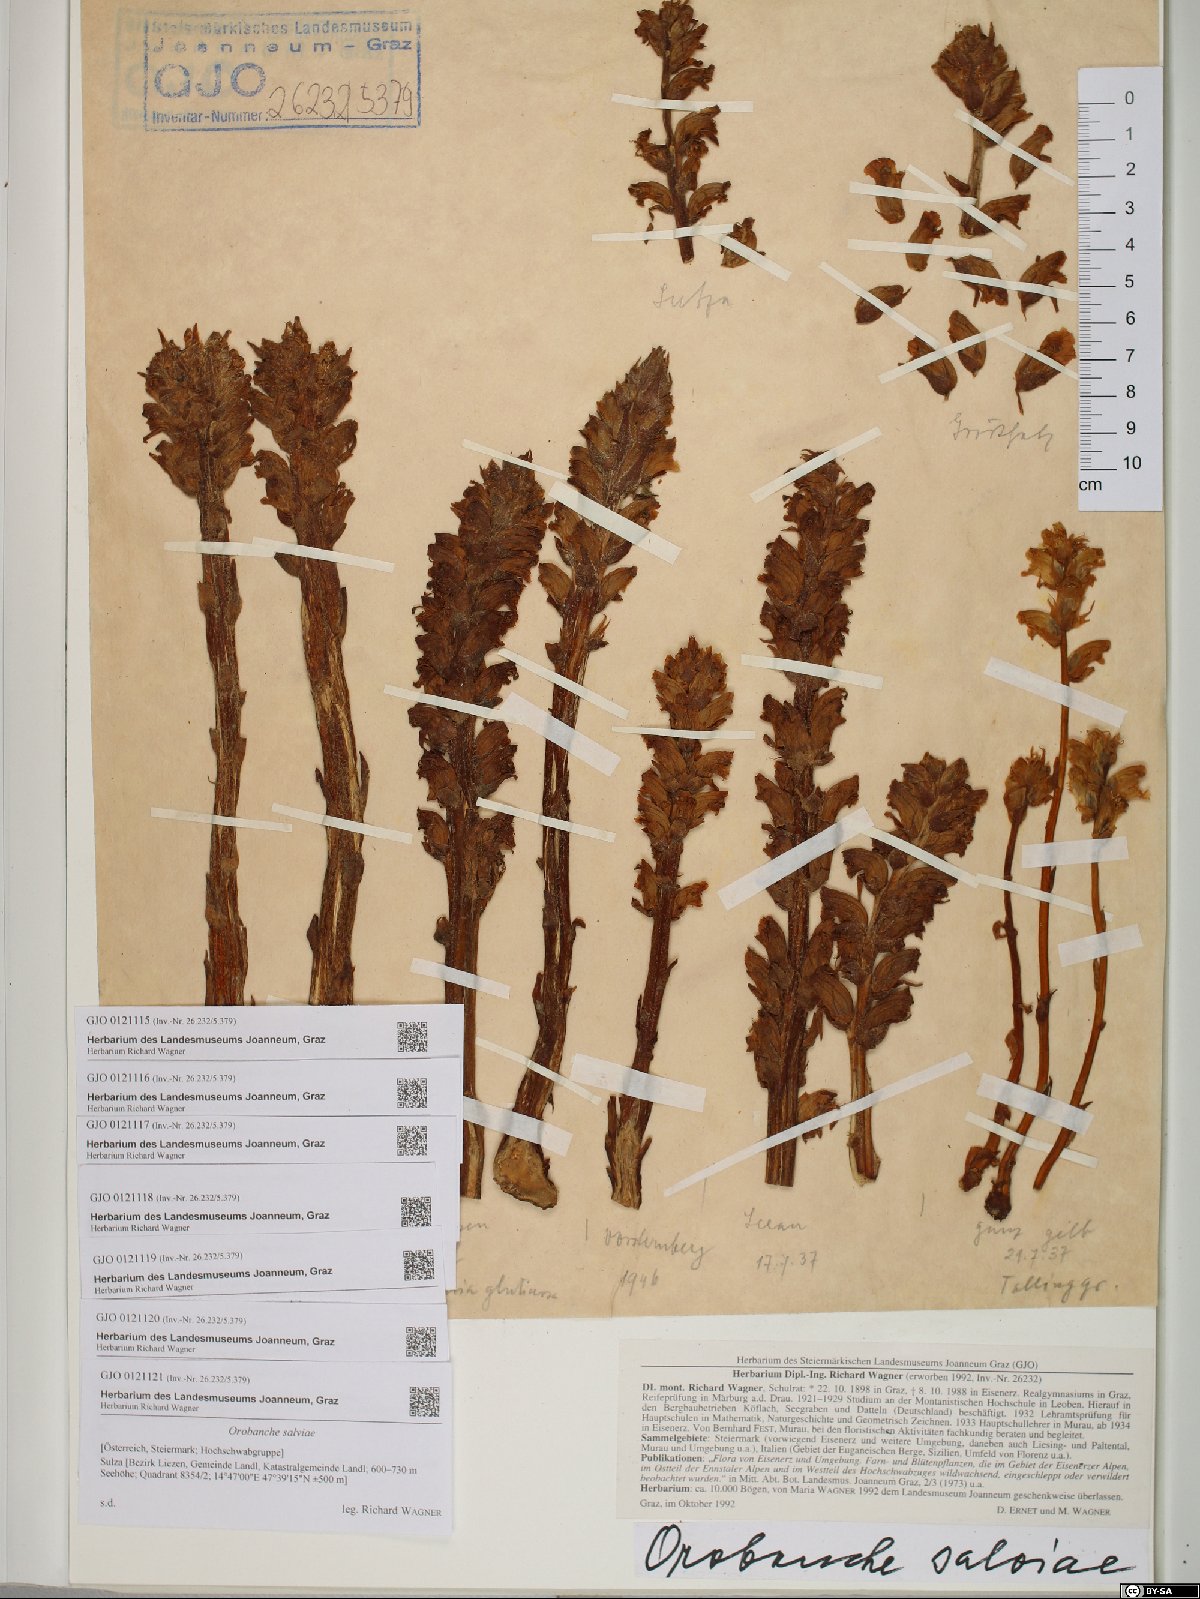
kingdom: Plantae
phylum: Tracheophyta
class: Magnoliopsida
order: Lamiales
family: Orobanchaceae
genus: Orobanche
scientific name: Orobanche salviae
